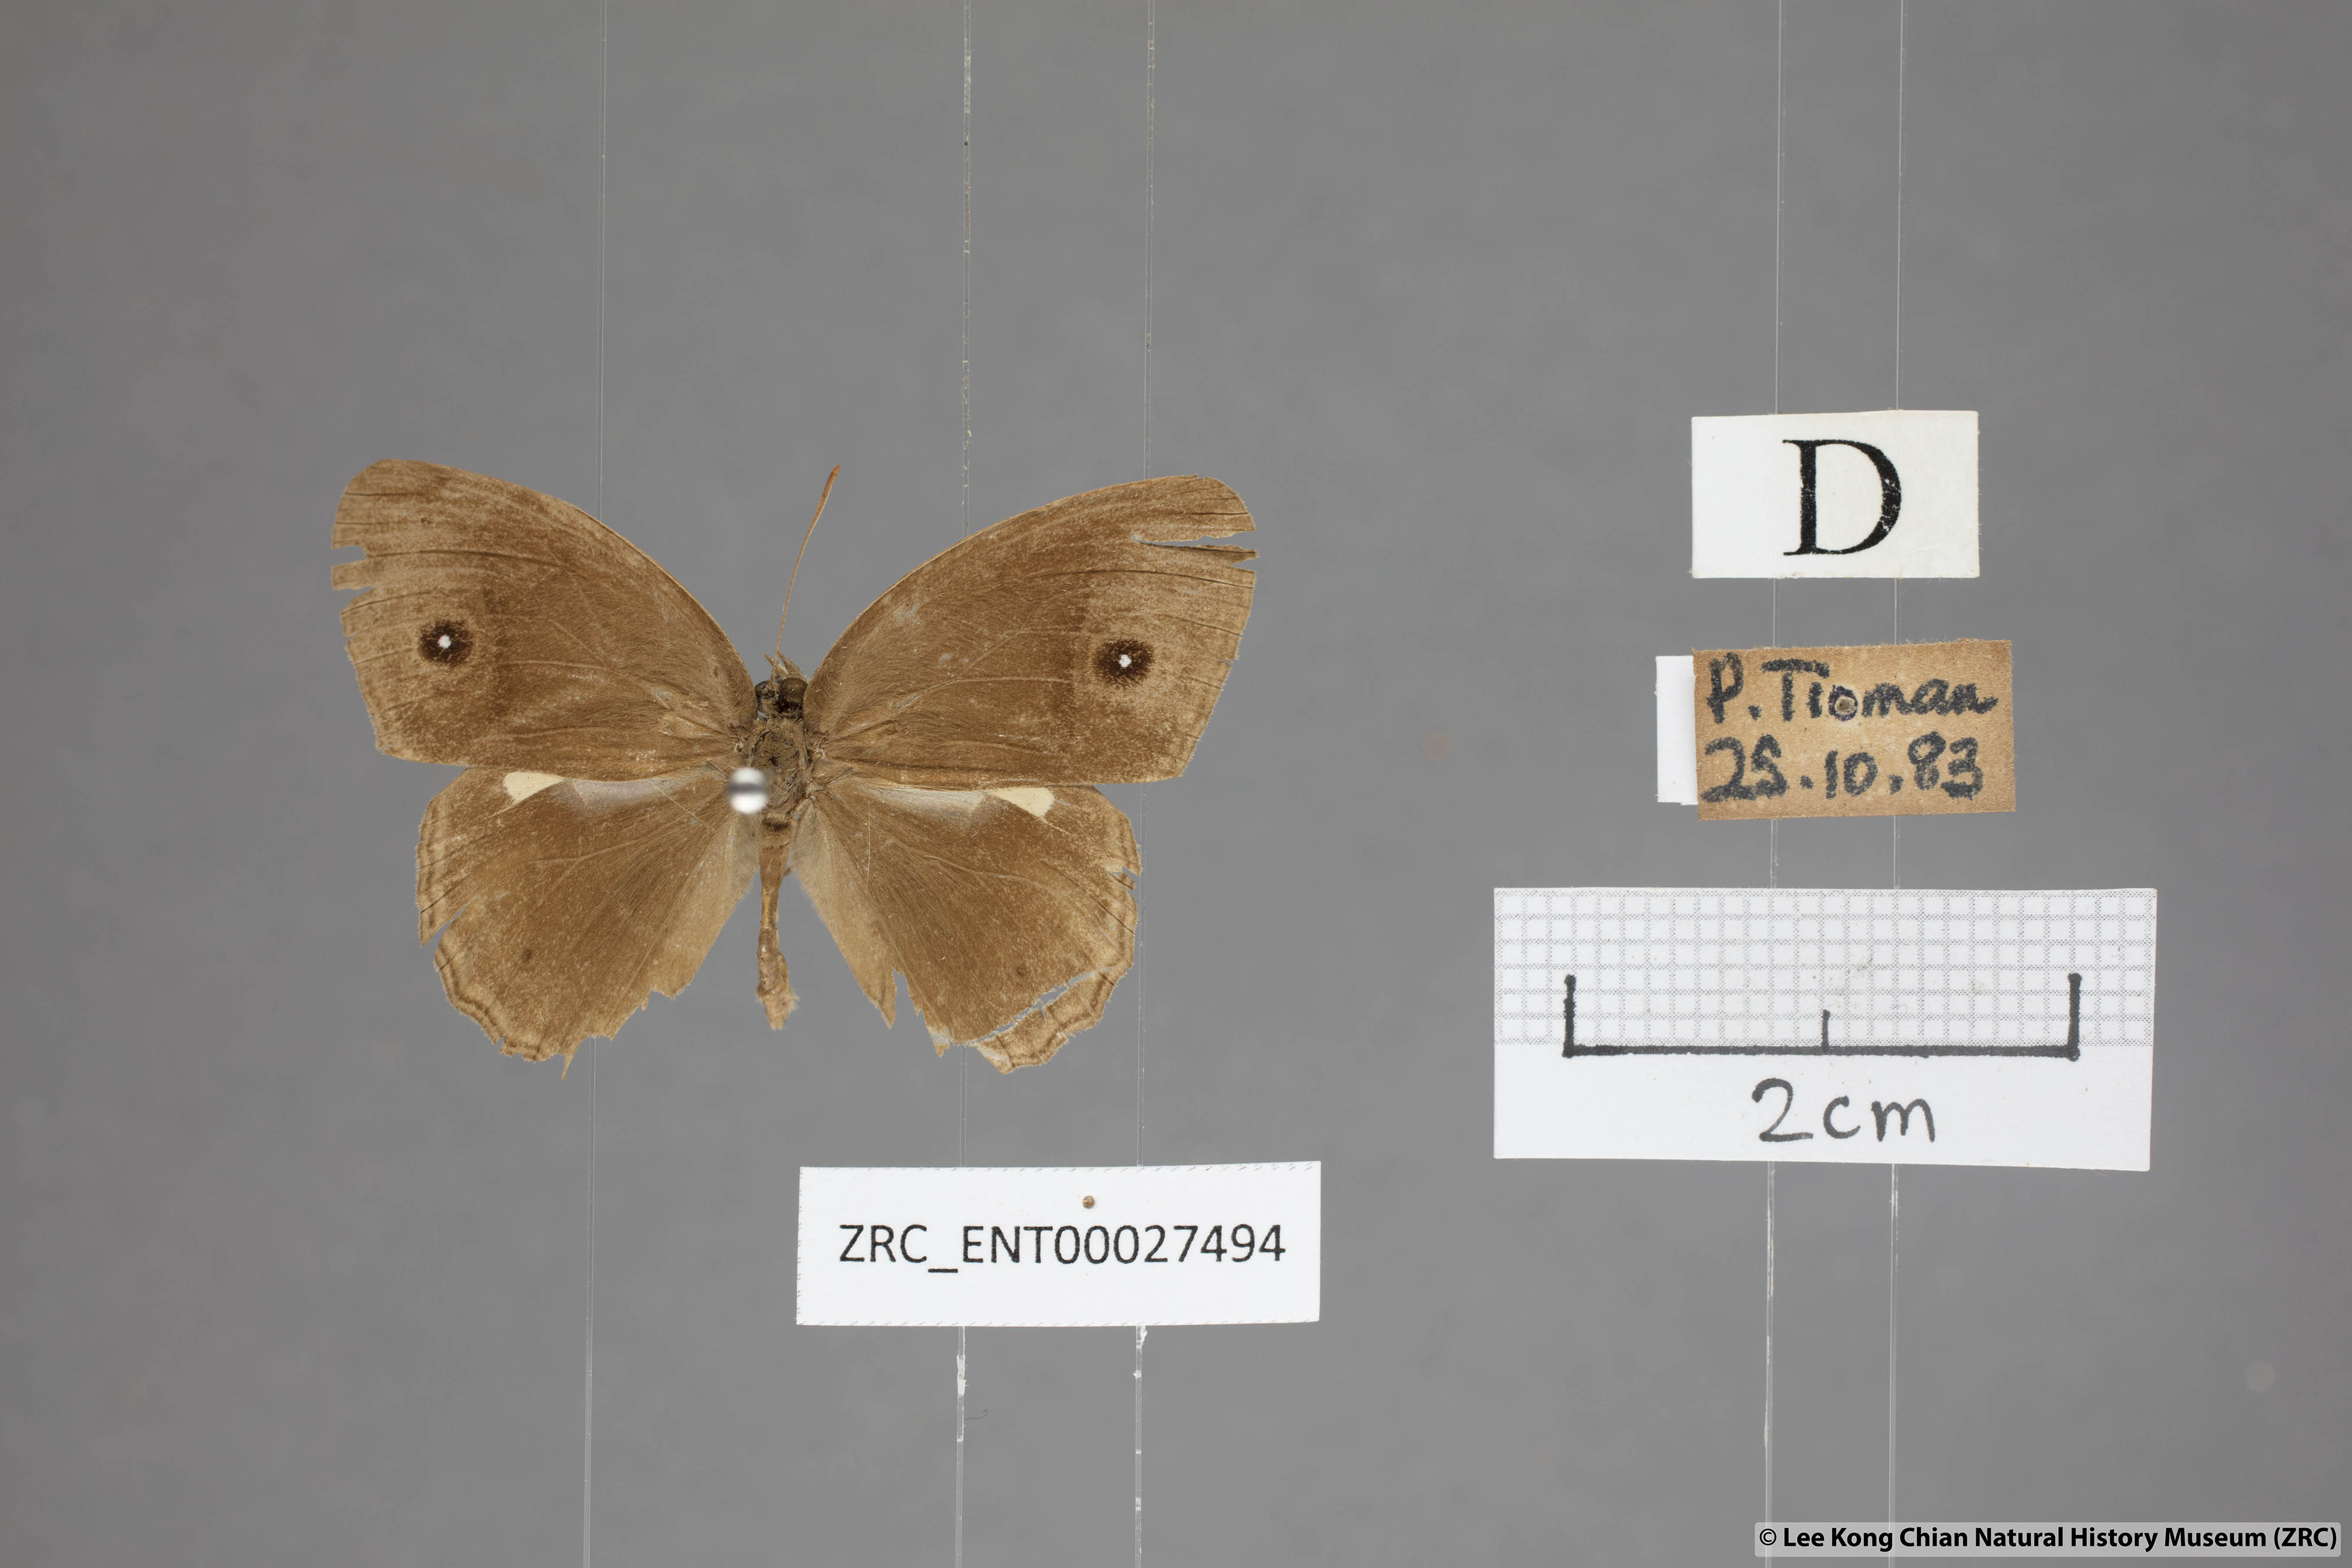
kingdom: Animalia
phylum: Arthropoda
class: Insecta
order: Lepidoptera
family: Nymphalidae
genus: Mycalesis
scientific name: Mycalesis perseoides
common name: Burmese bushbrown
